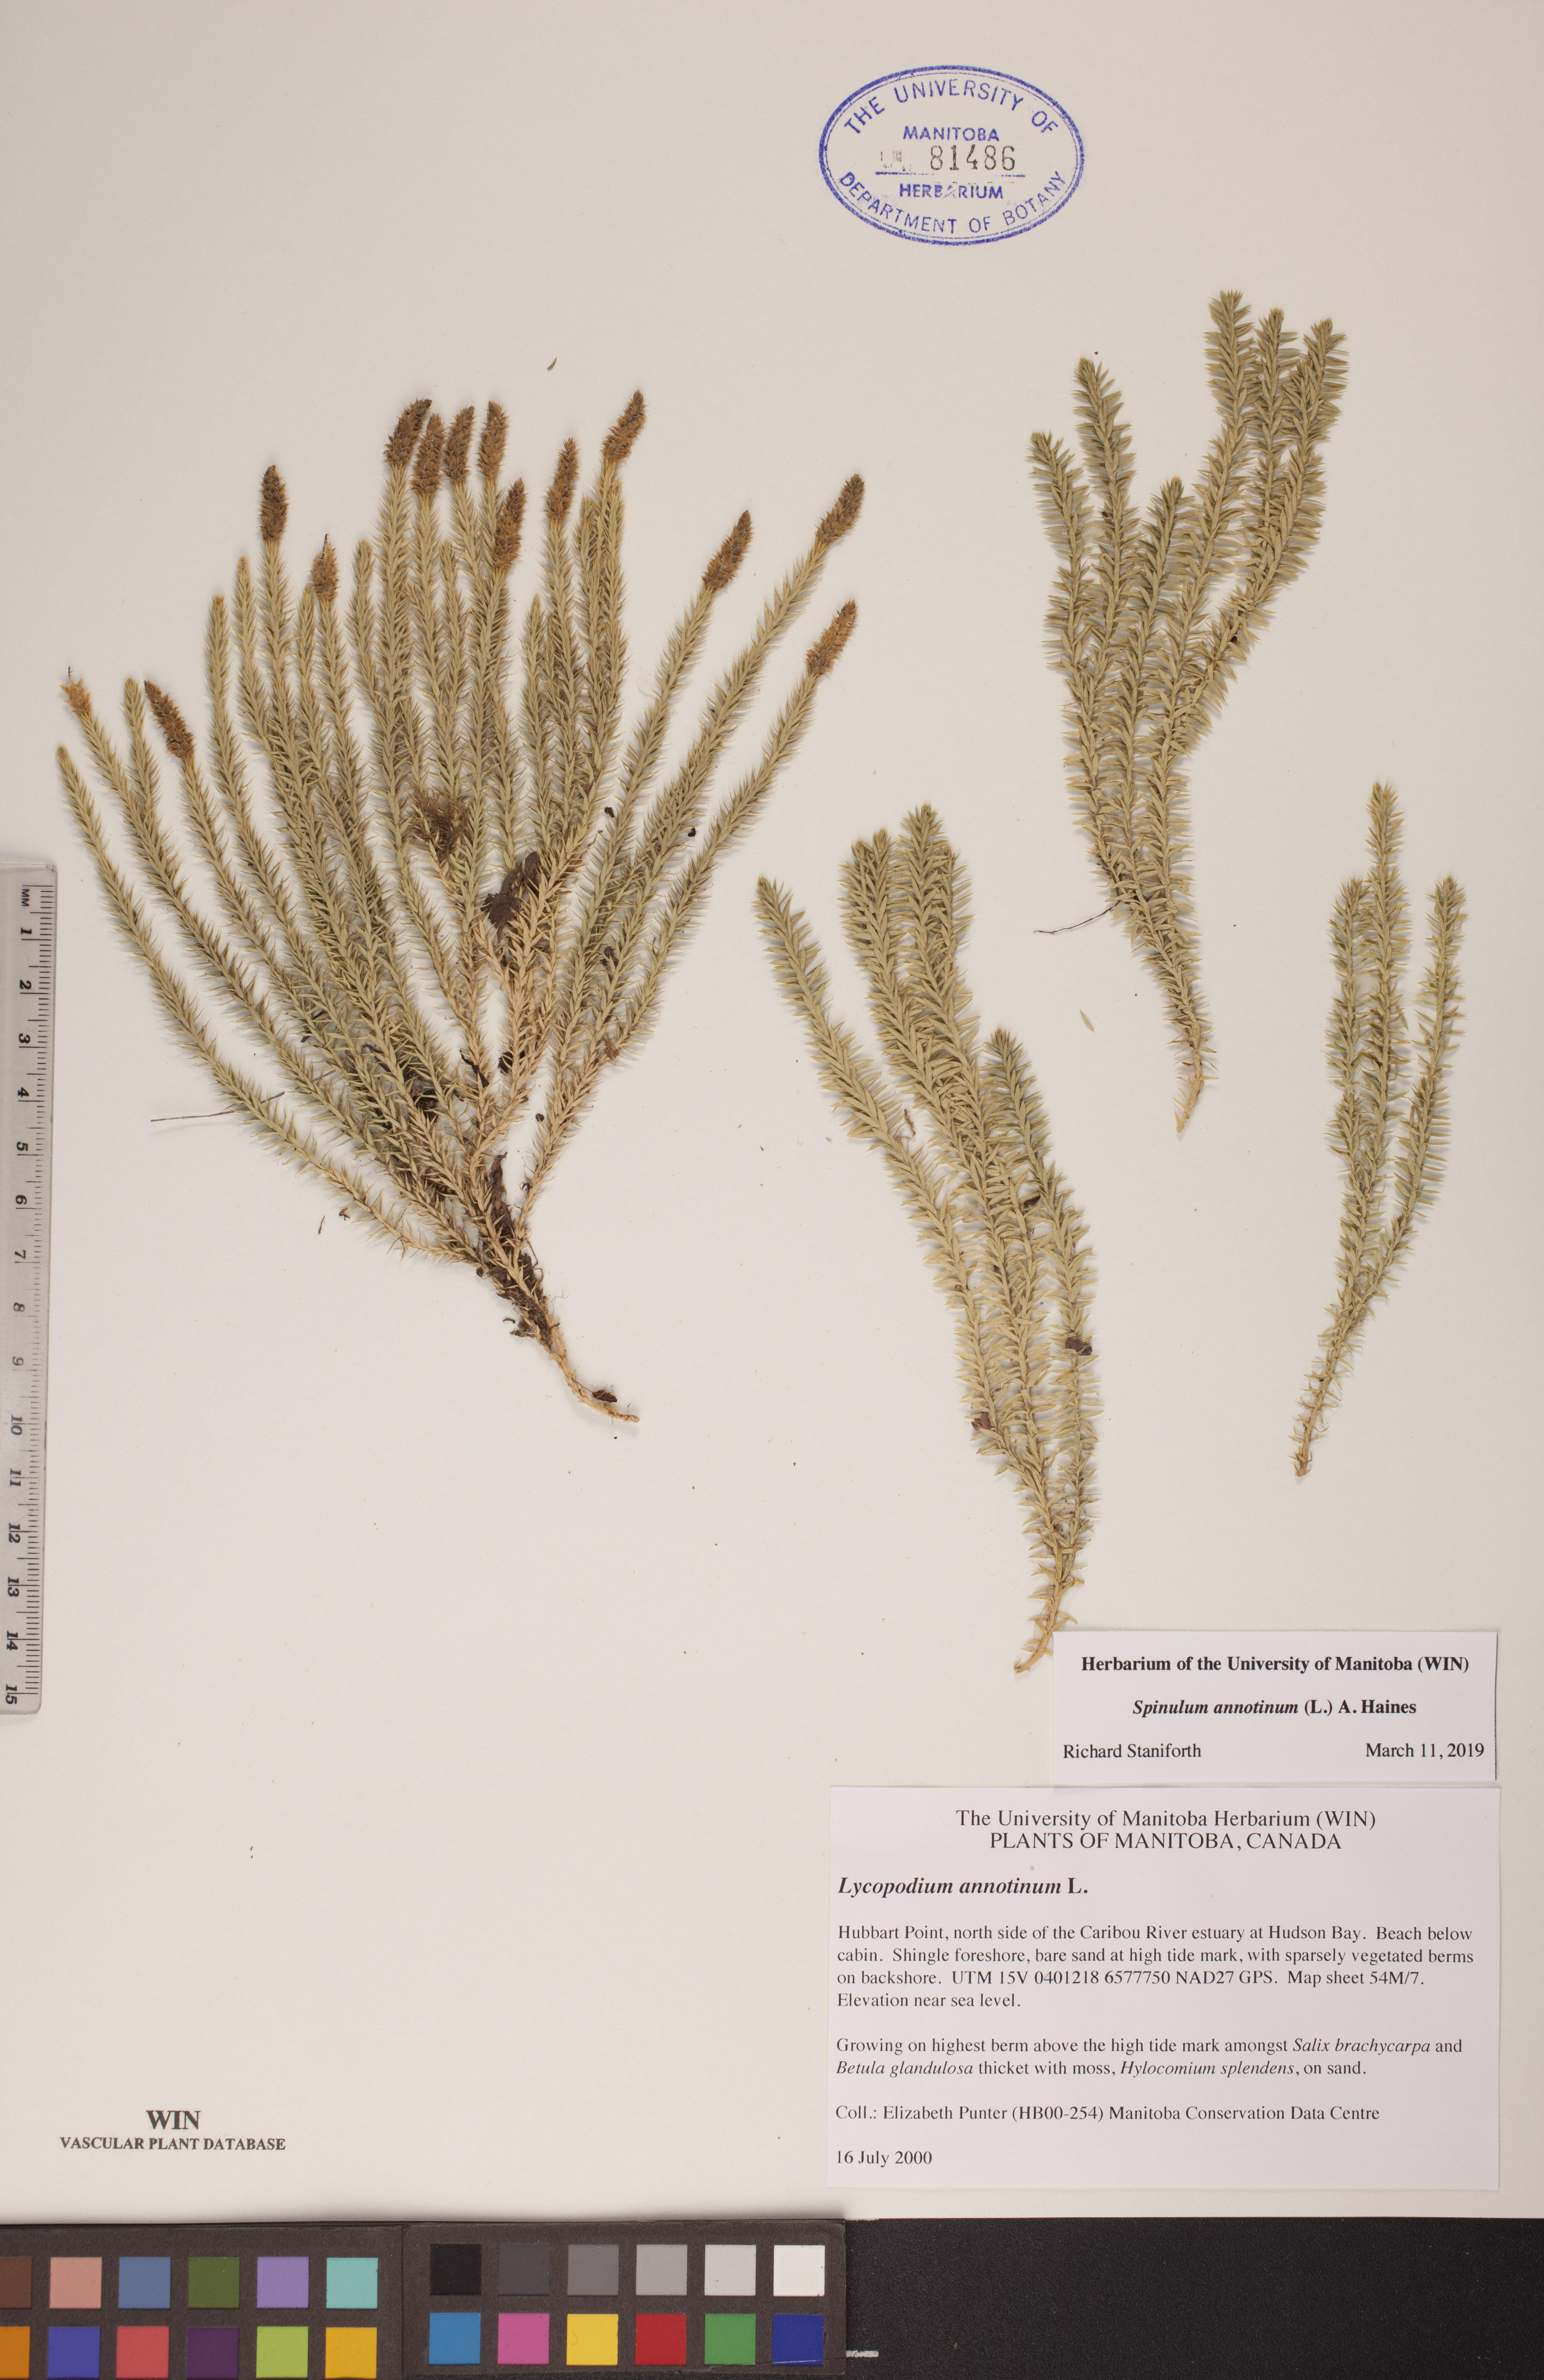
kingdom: Plantae
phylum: Tracheophyta
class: Lycopodiopsida
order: Lycopodiales
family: Lycopodiaceae
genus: Spinulum
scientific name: Spinulum annotinum
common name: Interrupted club-moss
